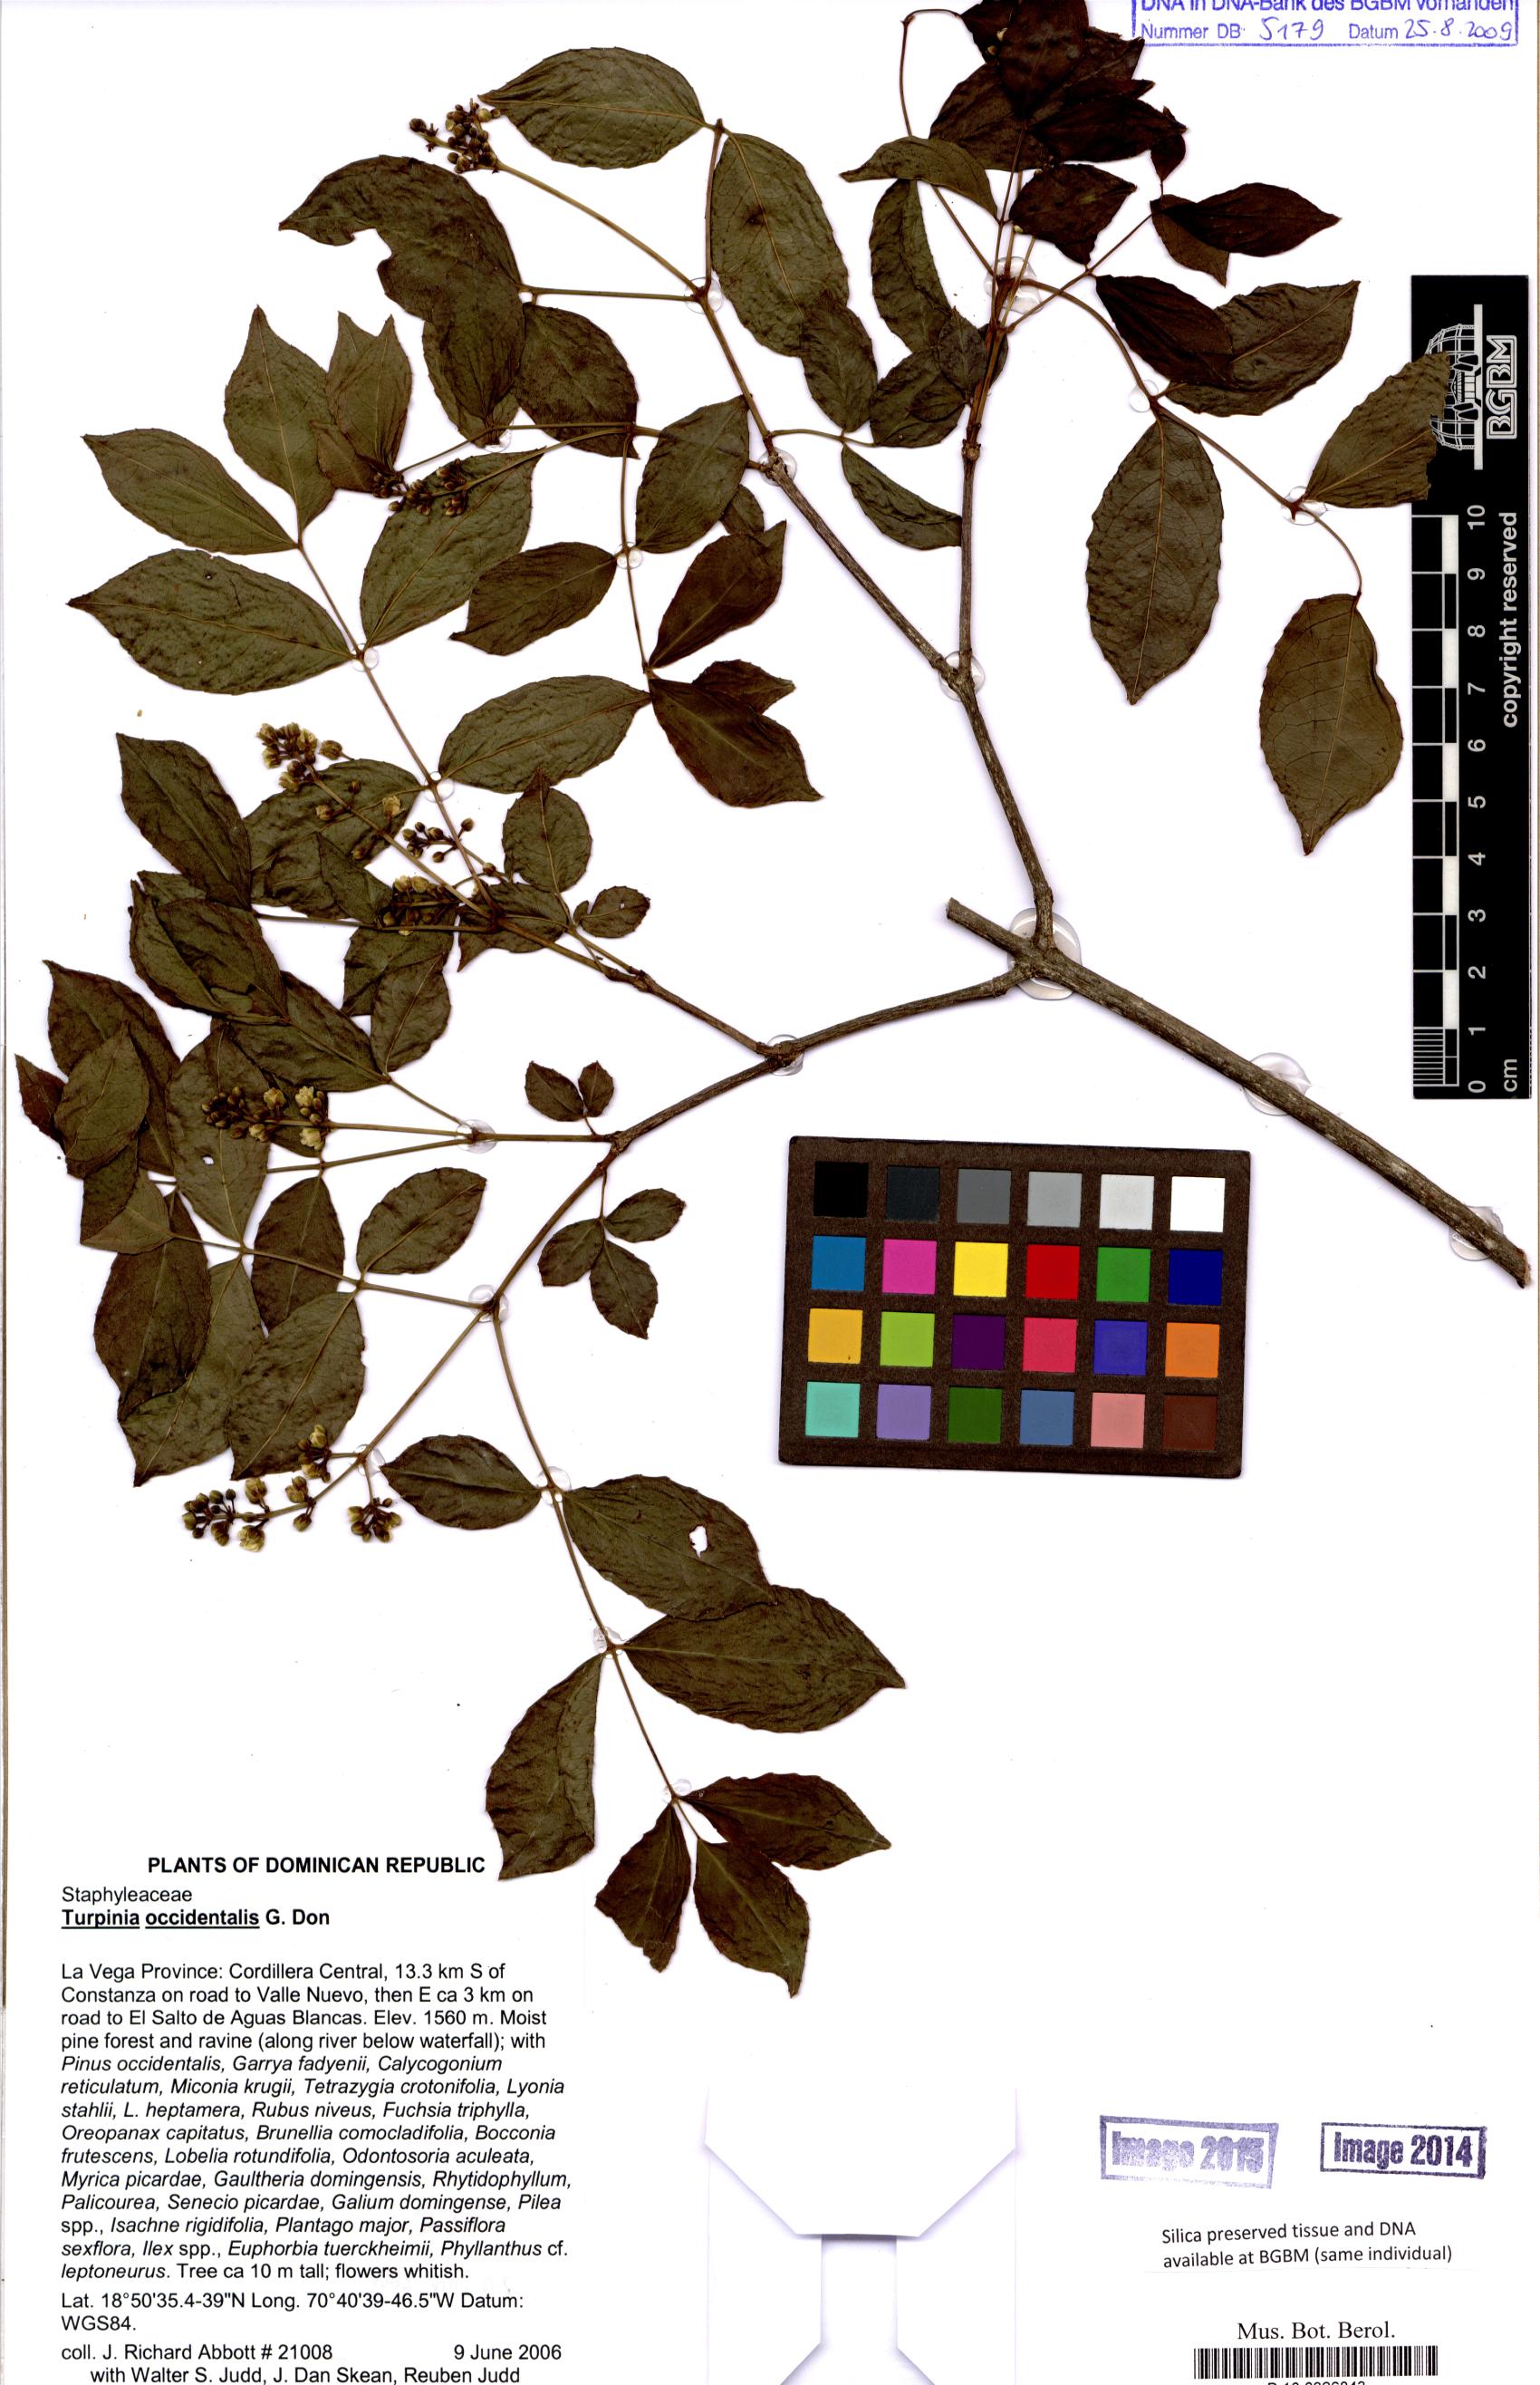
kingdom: Plantae
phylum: Tracheophyta
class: Magnoliopsida
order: Crossosomatales
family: Staphyleaceae
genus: Turpinia
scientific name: Turpinia occidentalis
